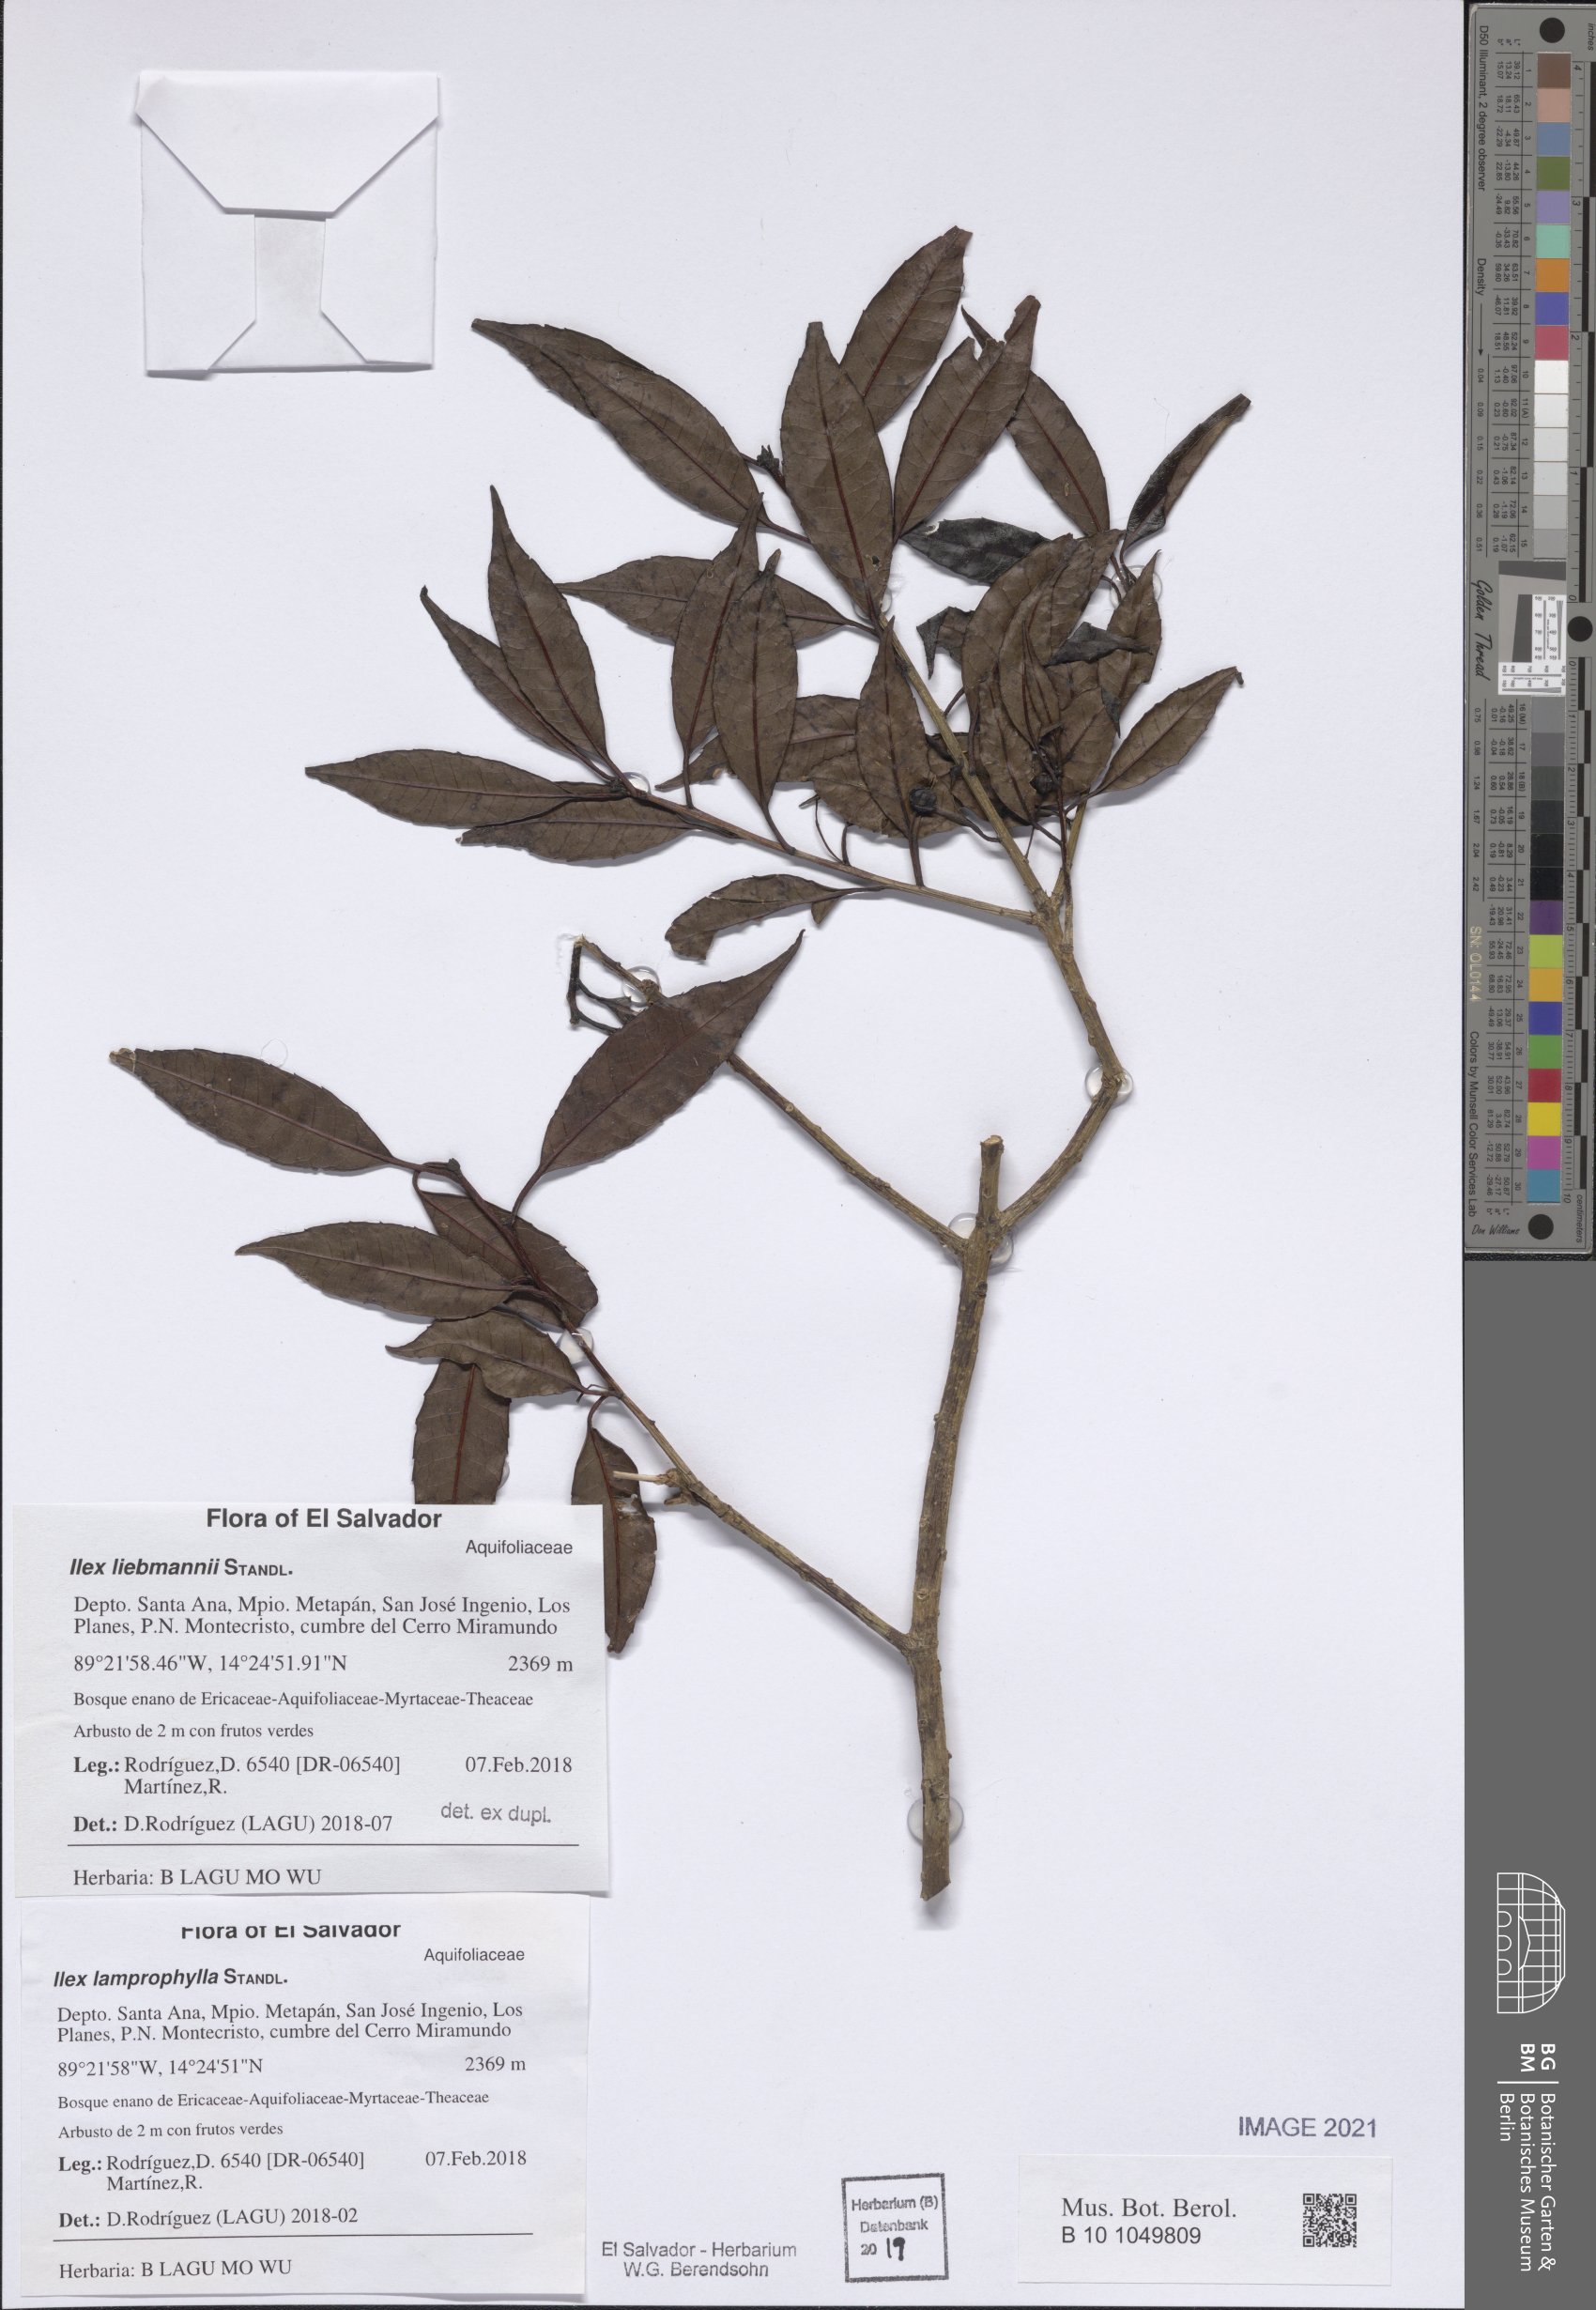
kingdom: Plantae
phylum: Tracheophyta
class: Magnoliopsida
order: Aquifoliales
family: Aquifoliaceae
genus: Ilex
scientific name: Ilex liebmannii
